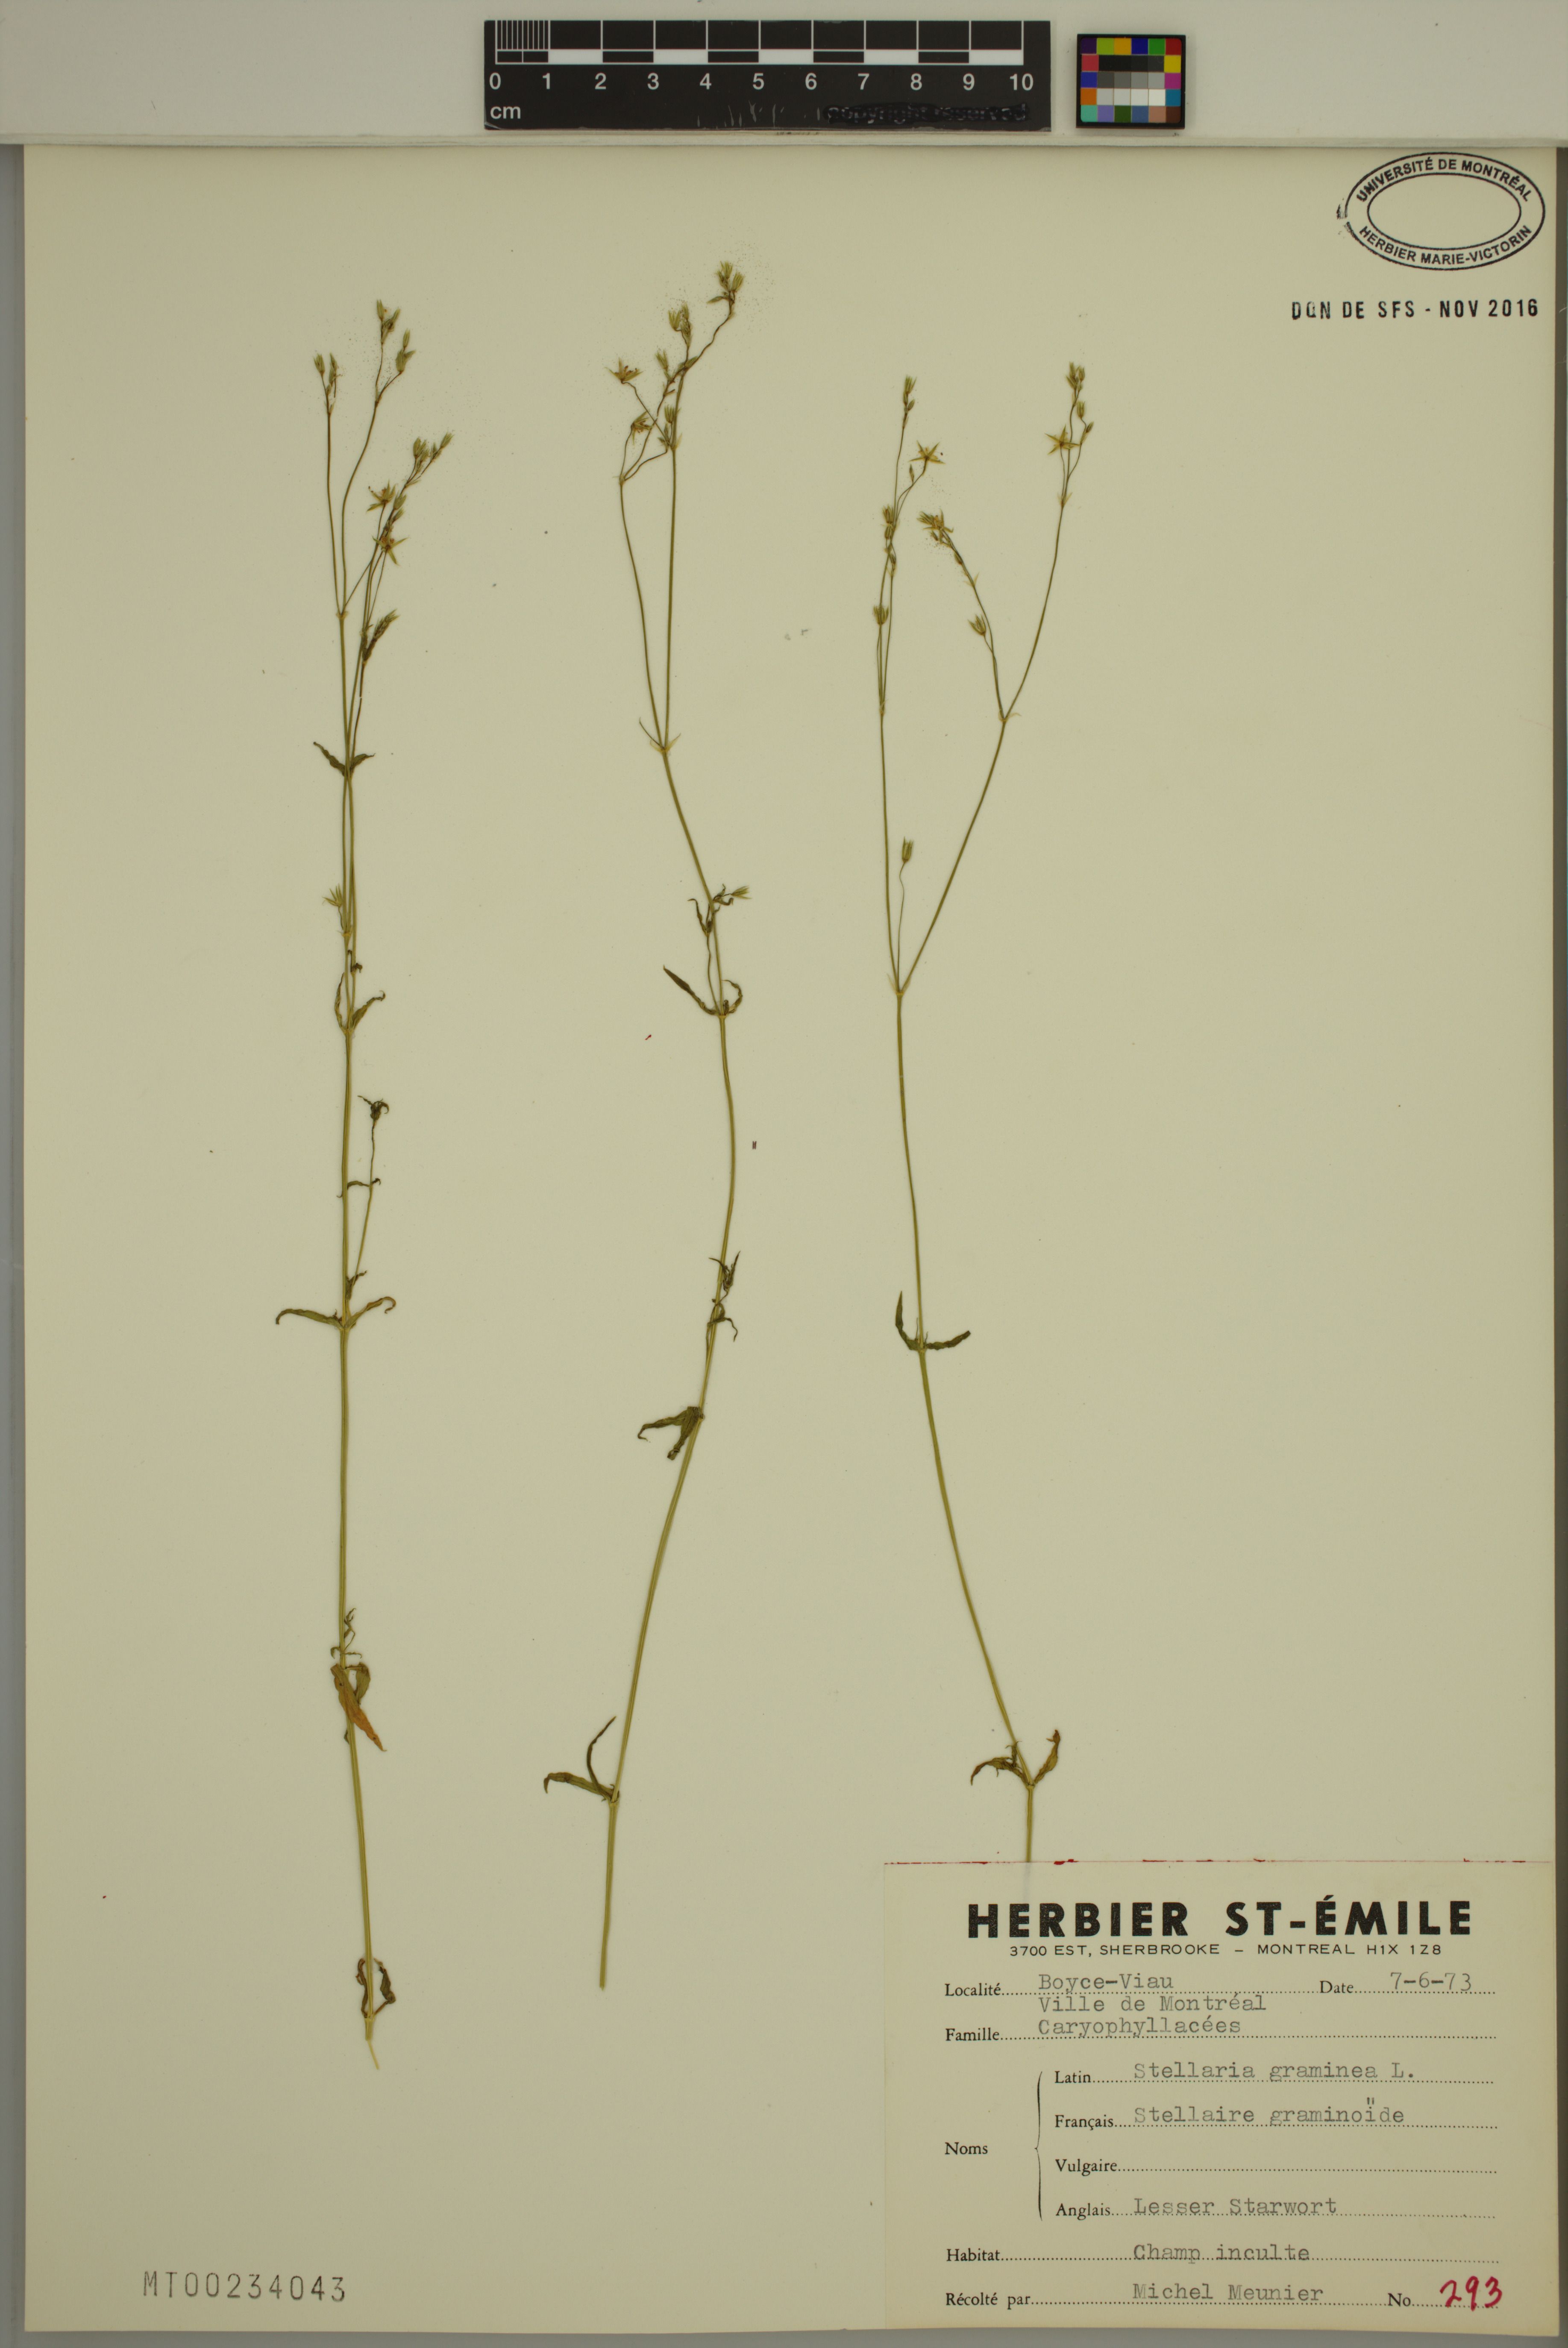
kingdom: Plantae
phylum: Tracheophyta
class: Magnoliopsida
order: Caryophyllales
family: Caryophyllaceae
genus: Stellaria
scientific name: Stellaria graminea
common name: Grass-like starwort
